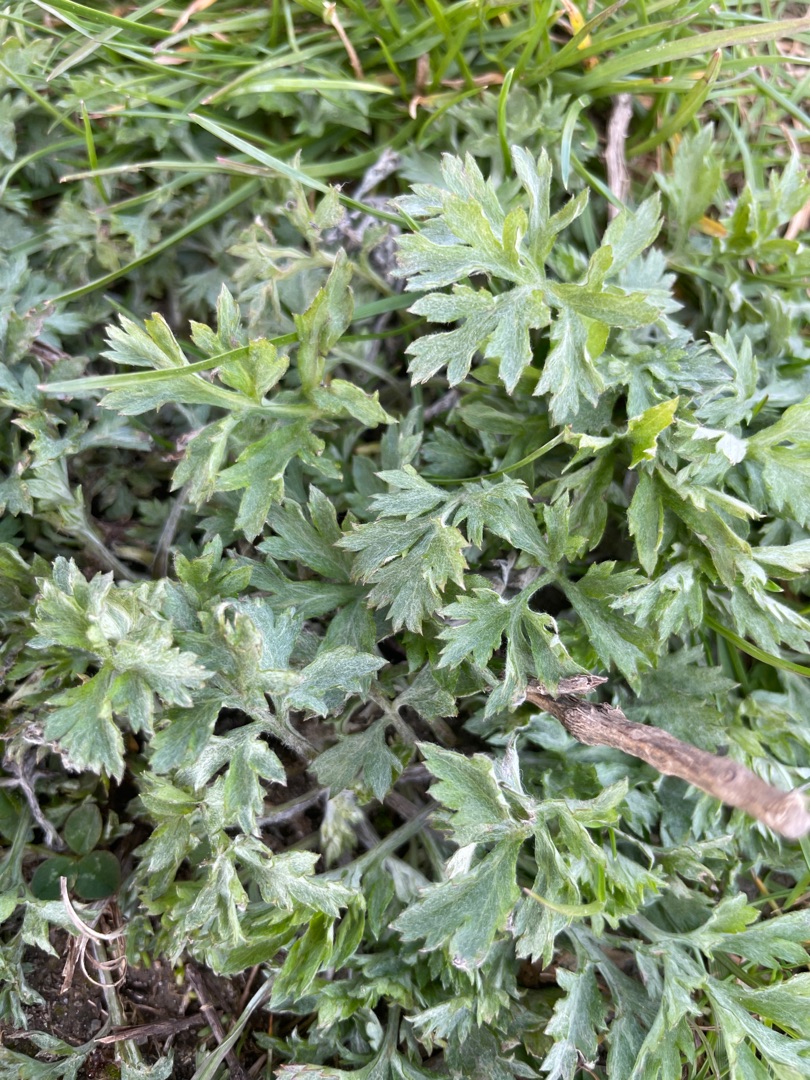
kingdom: Plantae
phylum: Tracheophyta
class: Magnoliopsida
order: Asterales
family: Asteraceae
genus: Artemisia
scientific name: Artemisia vulgaris
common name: Grå-bynke
